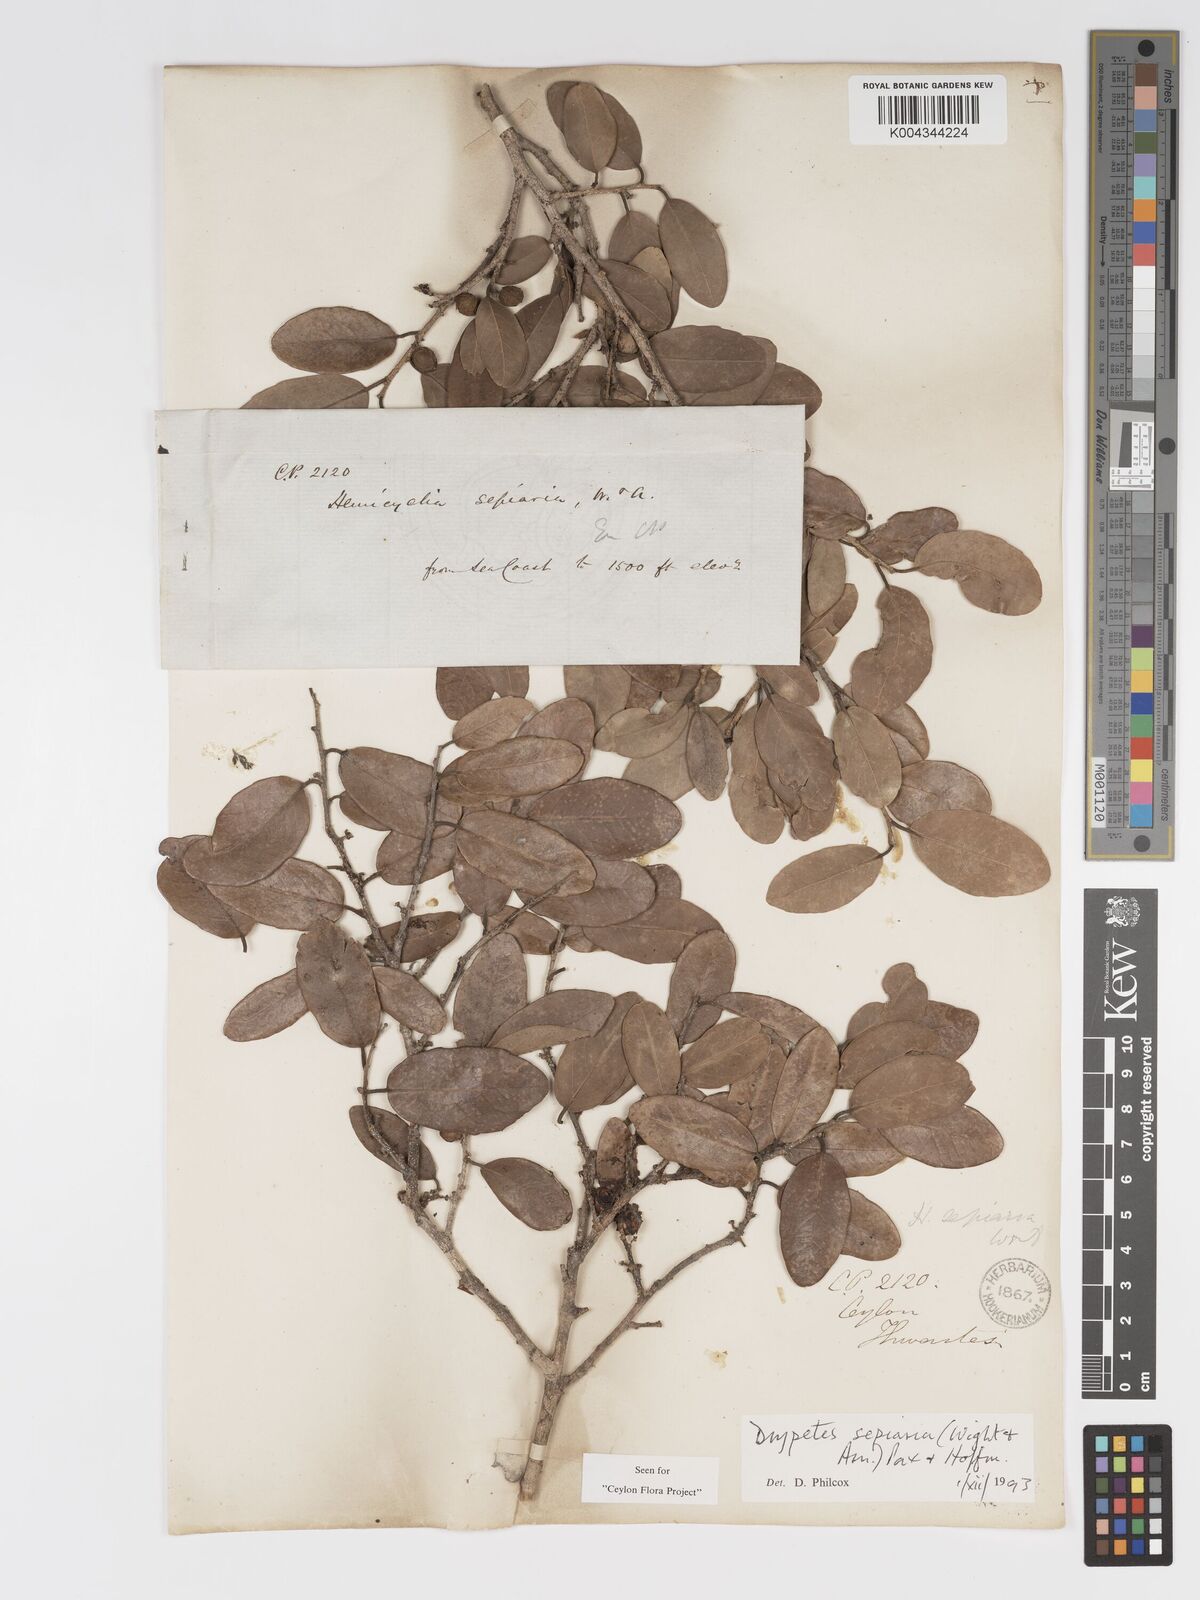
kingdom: Plantae
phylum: Tracheophyta
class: Magnoliopsida
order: Malpighiales
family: Putranjivaceae
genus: Drypetes
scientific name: Drypetes sepiaria
